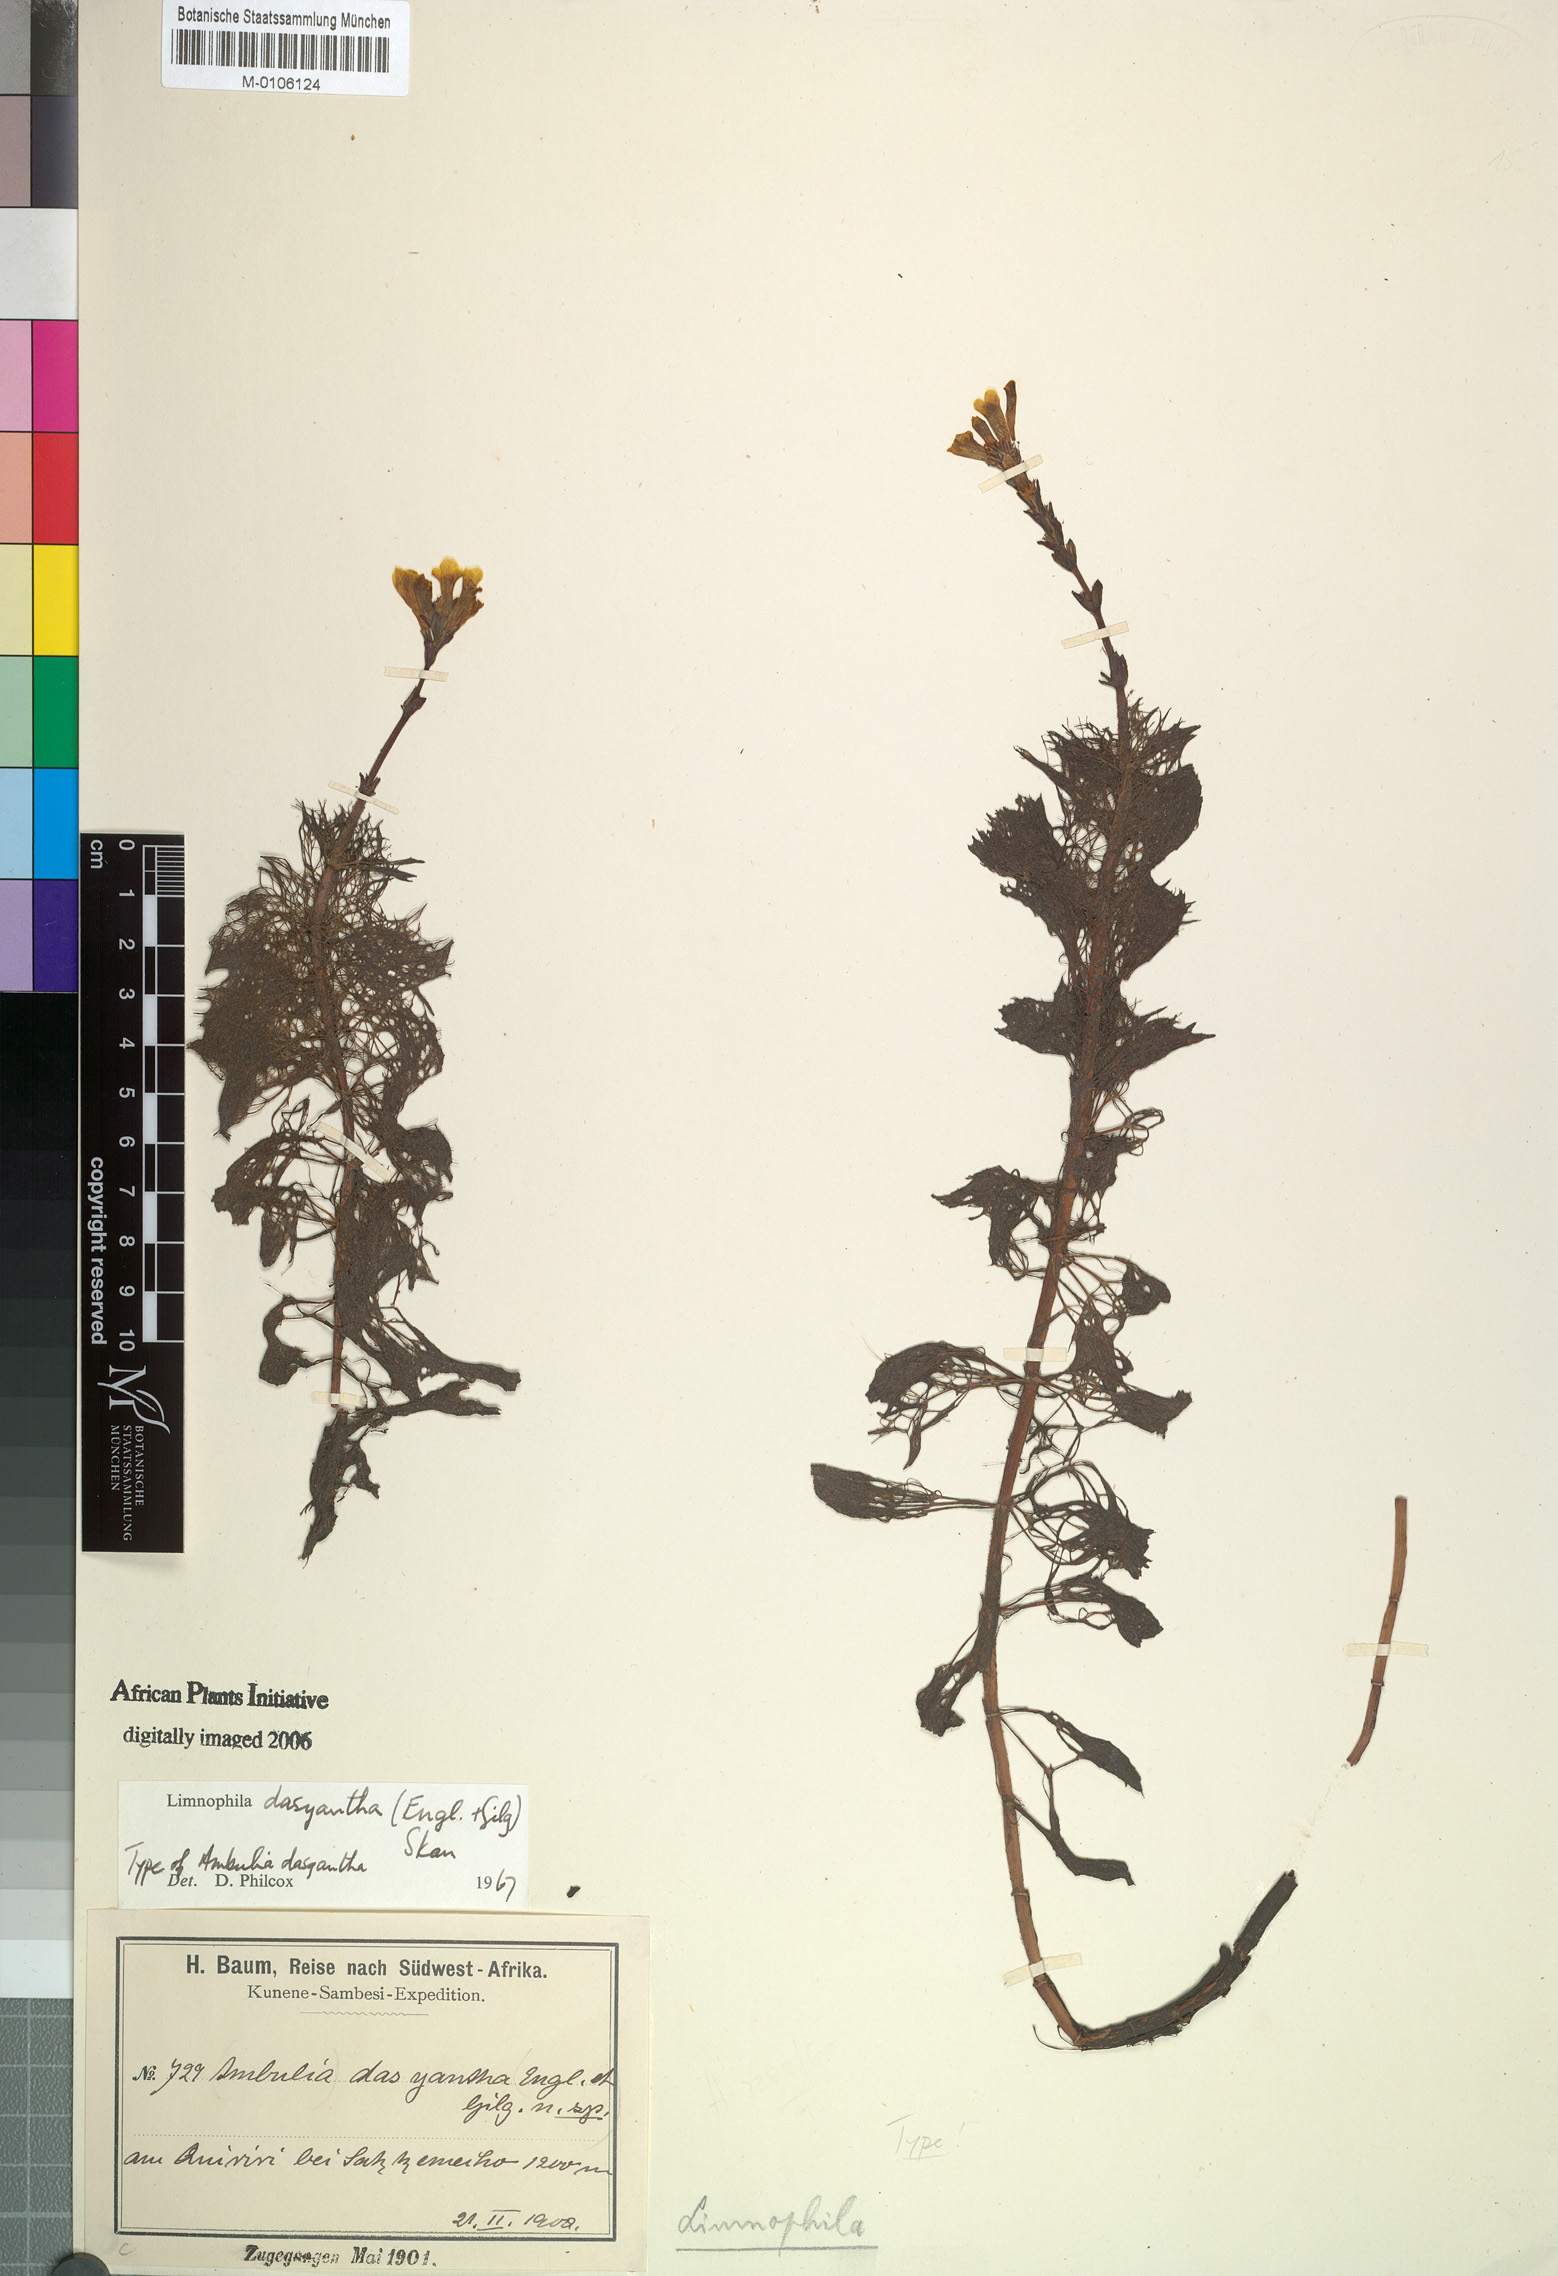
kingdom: Plantae
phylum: Tracheophyta
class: Magnoliopsida
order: Lamiales
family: Plantaginaceae
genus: Limnophila
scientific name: Limnophila dasyantha
